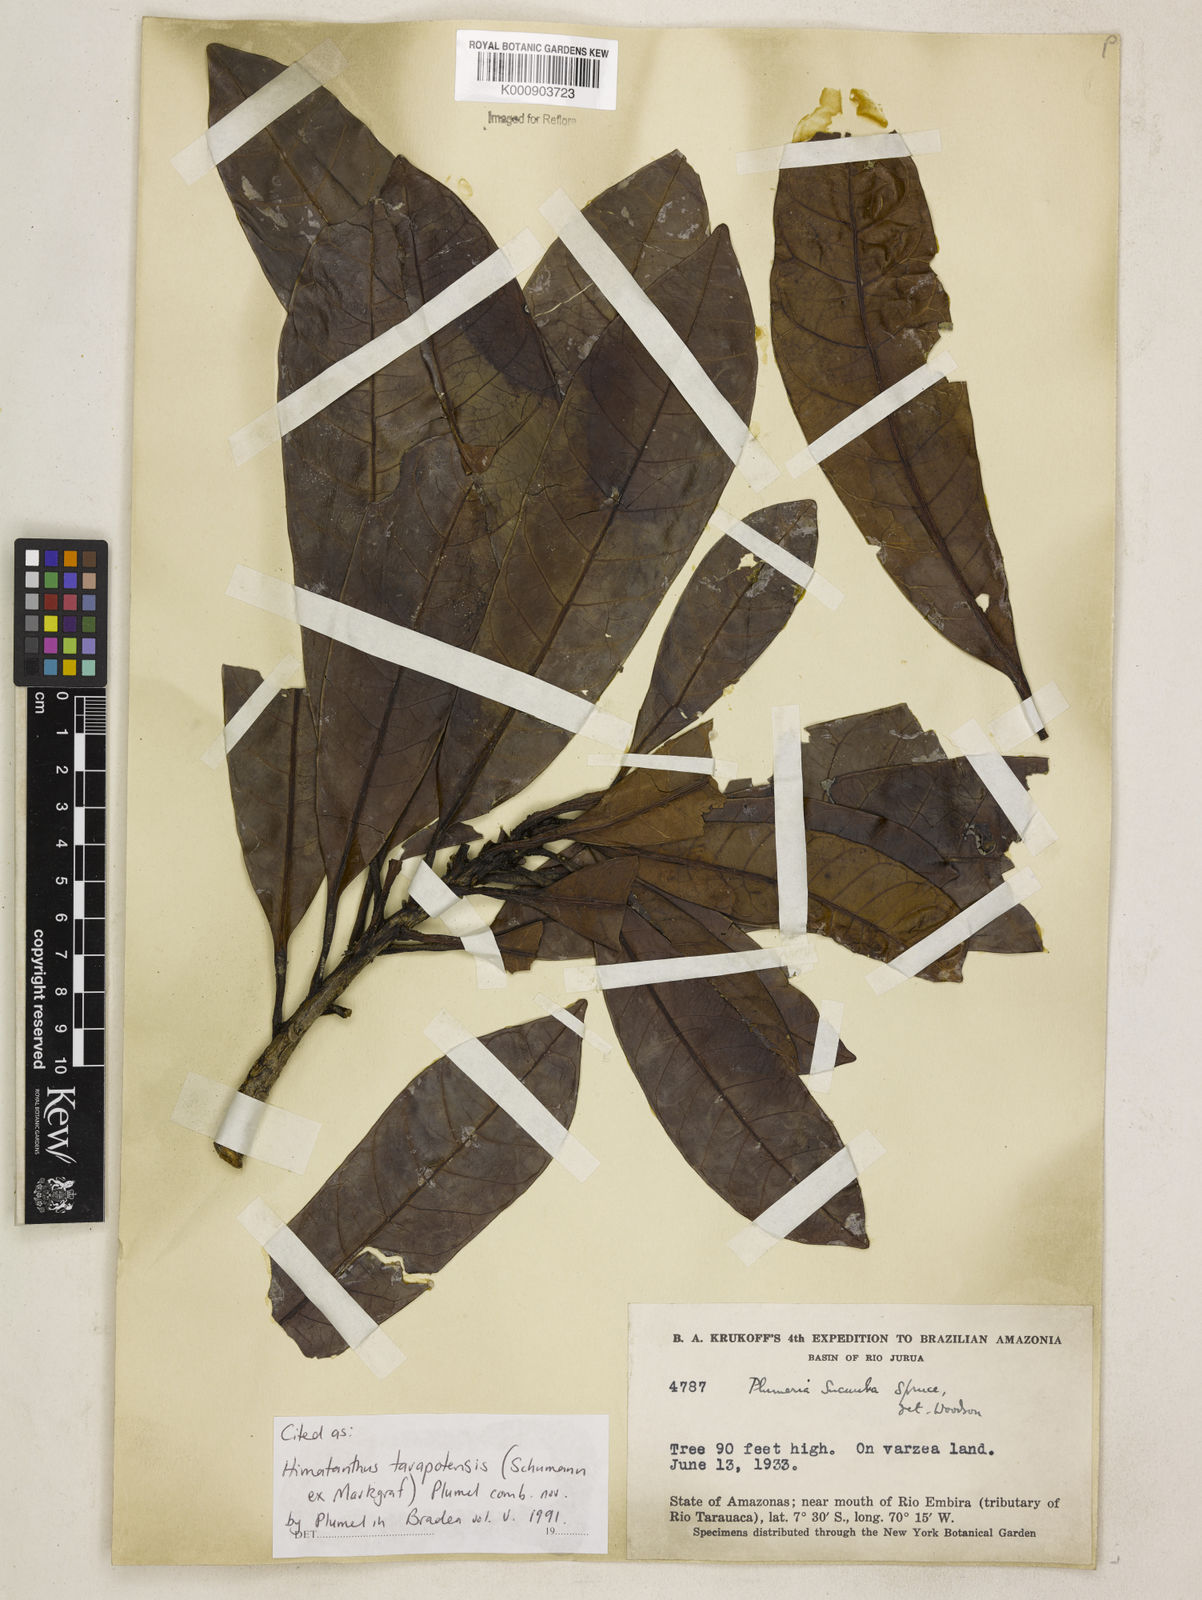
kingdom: Plantae
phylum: Tracheophyta
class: Magnoliopsida
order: Gentianales
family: Apocynaceae
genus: Himatanthus
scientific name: Himatanthus tarapotensis
